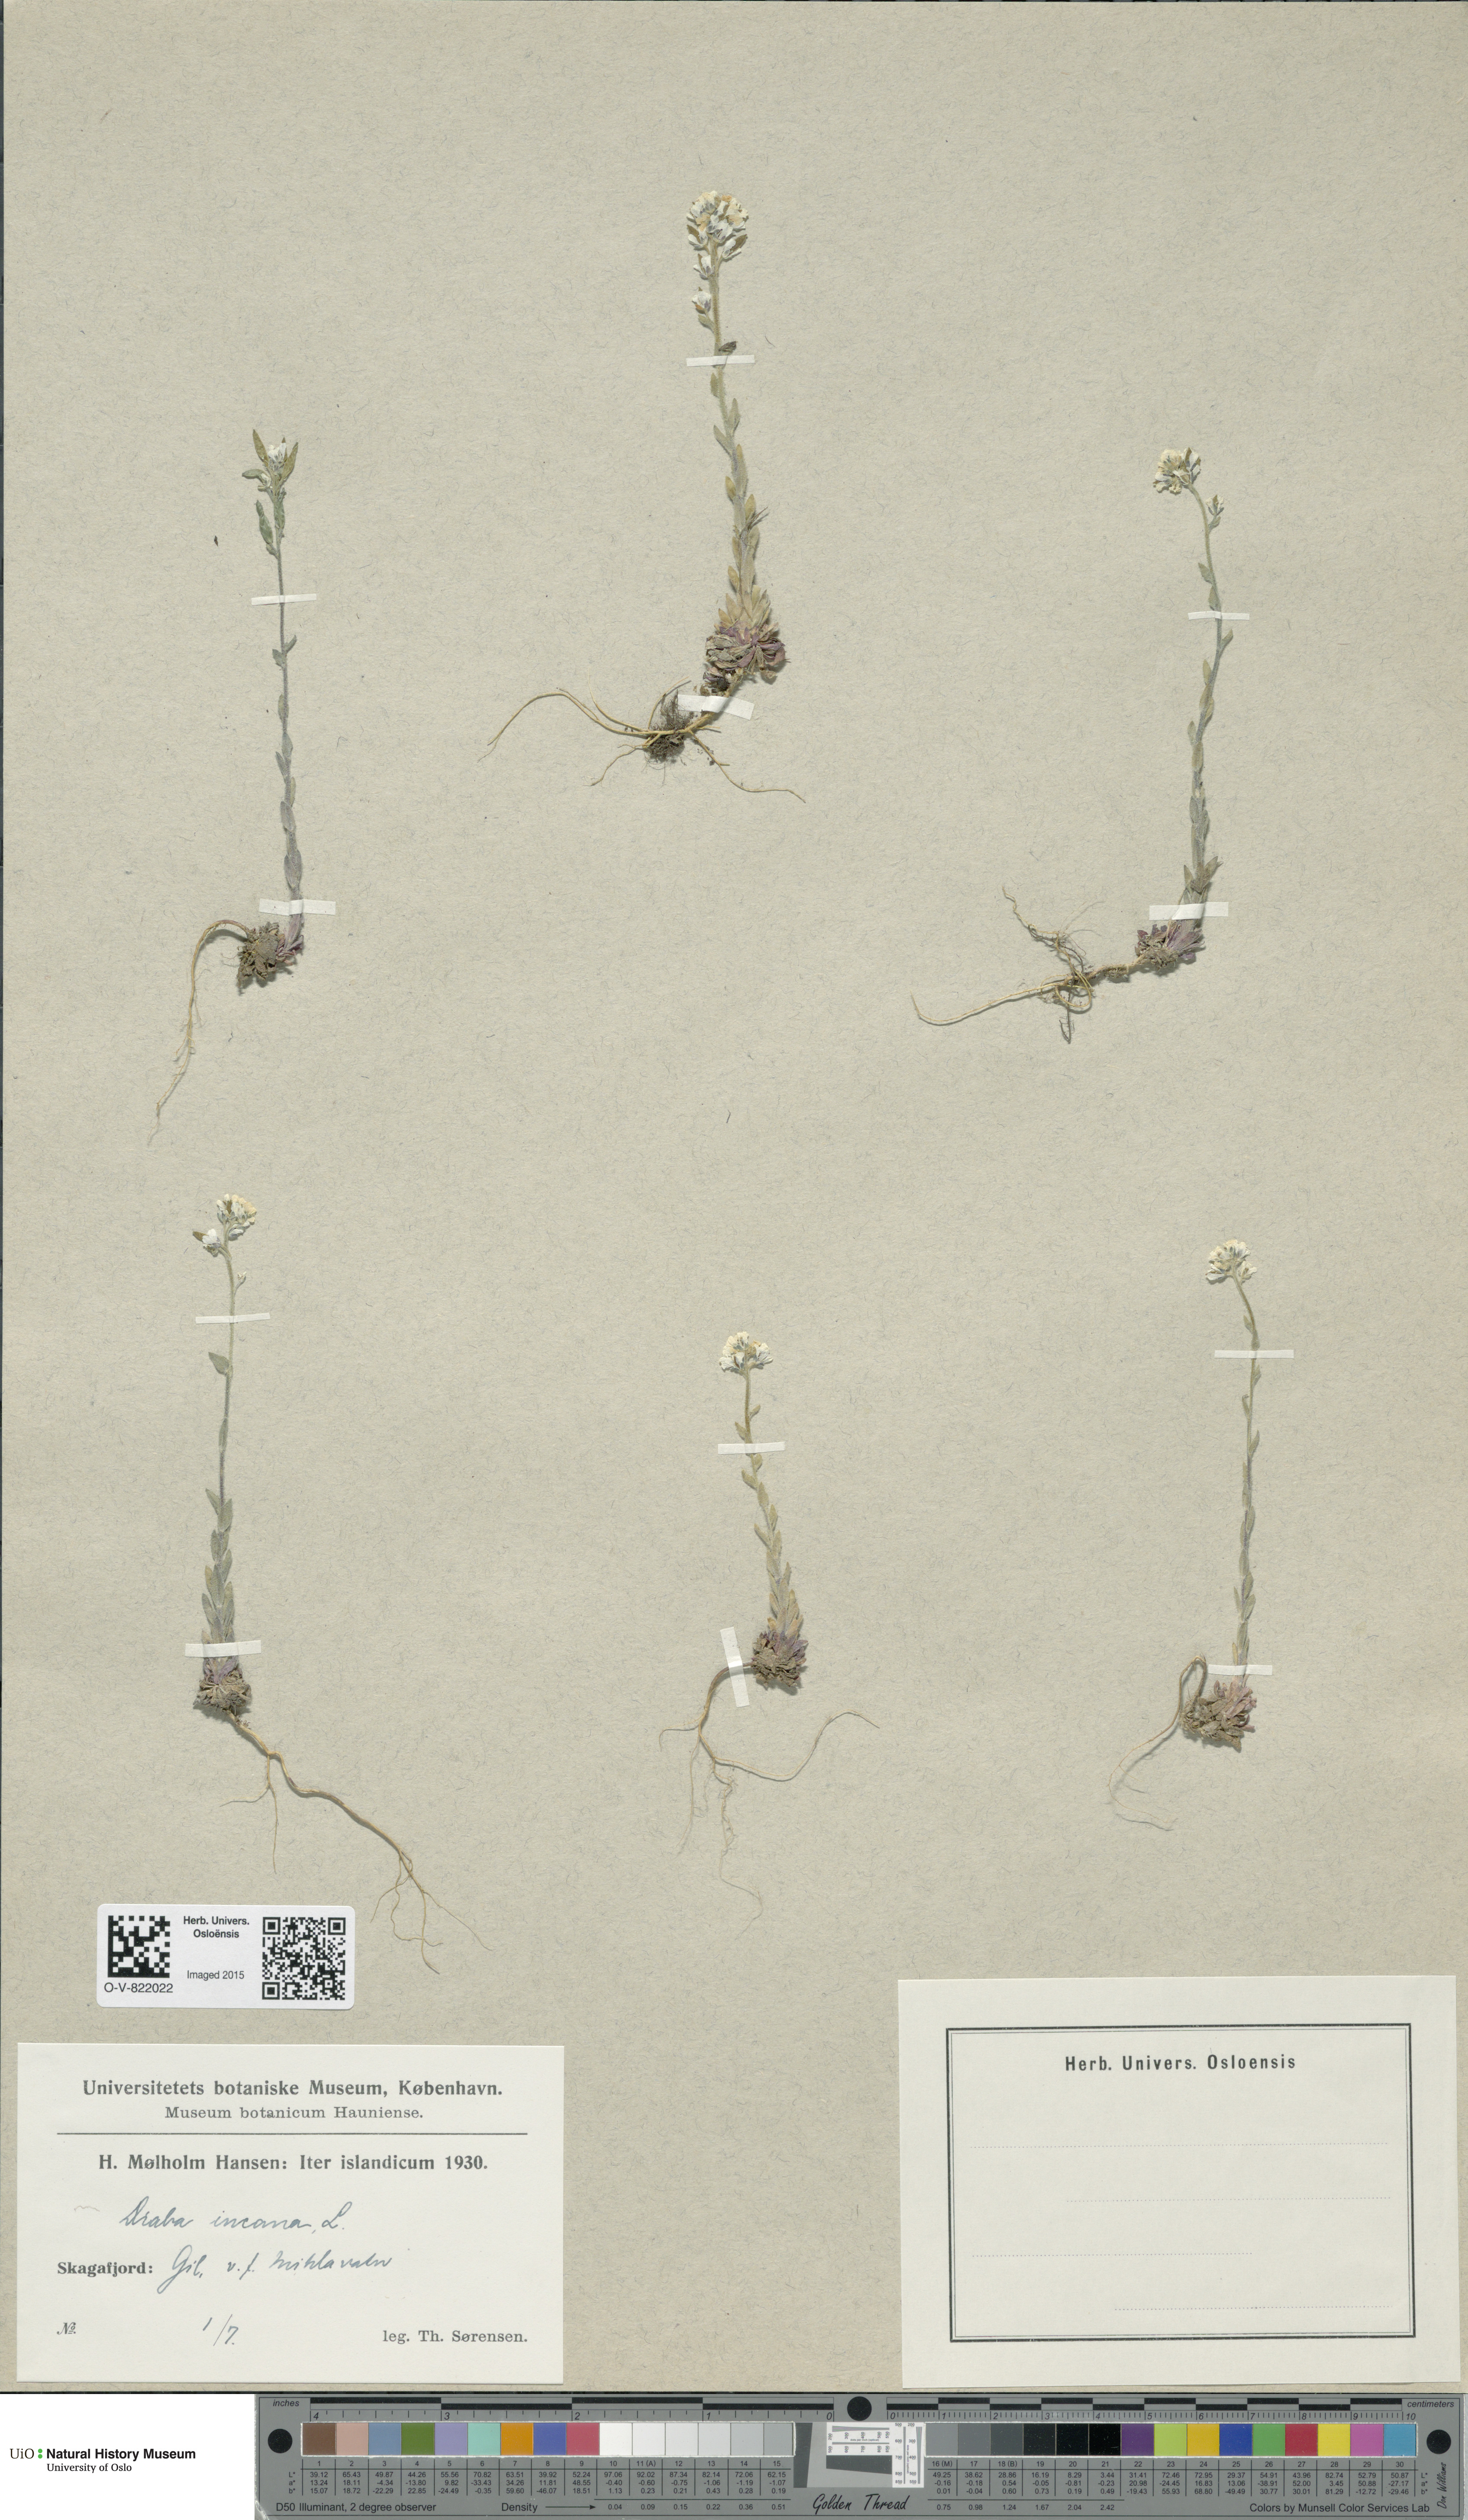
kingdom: Plantae
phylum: Tracheophyta
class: Magnoliopsida
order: Brassicales
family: Brassicaceae
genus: Draba
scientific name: Draba incana
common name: Hoary whitlow-grass
